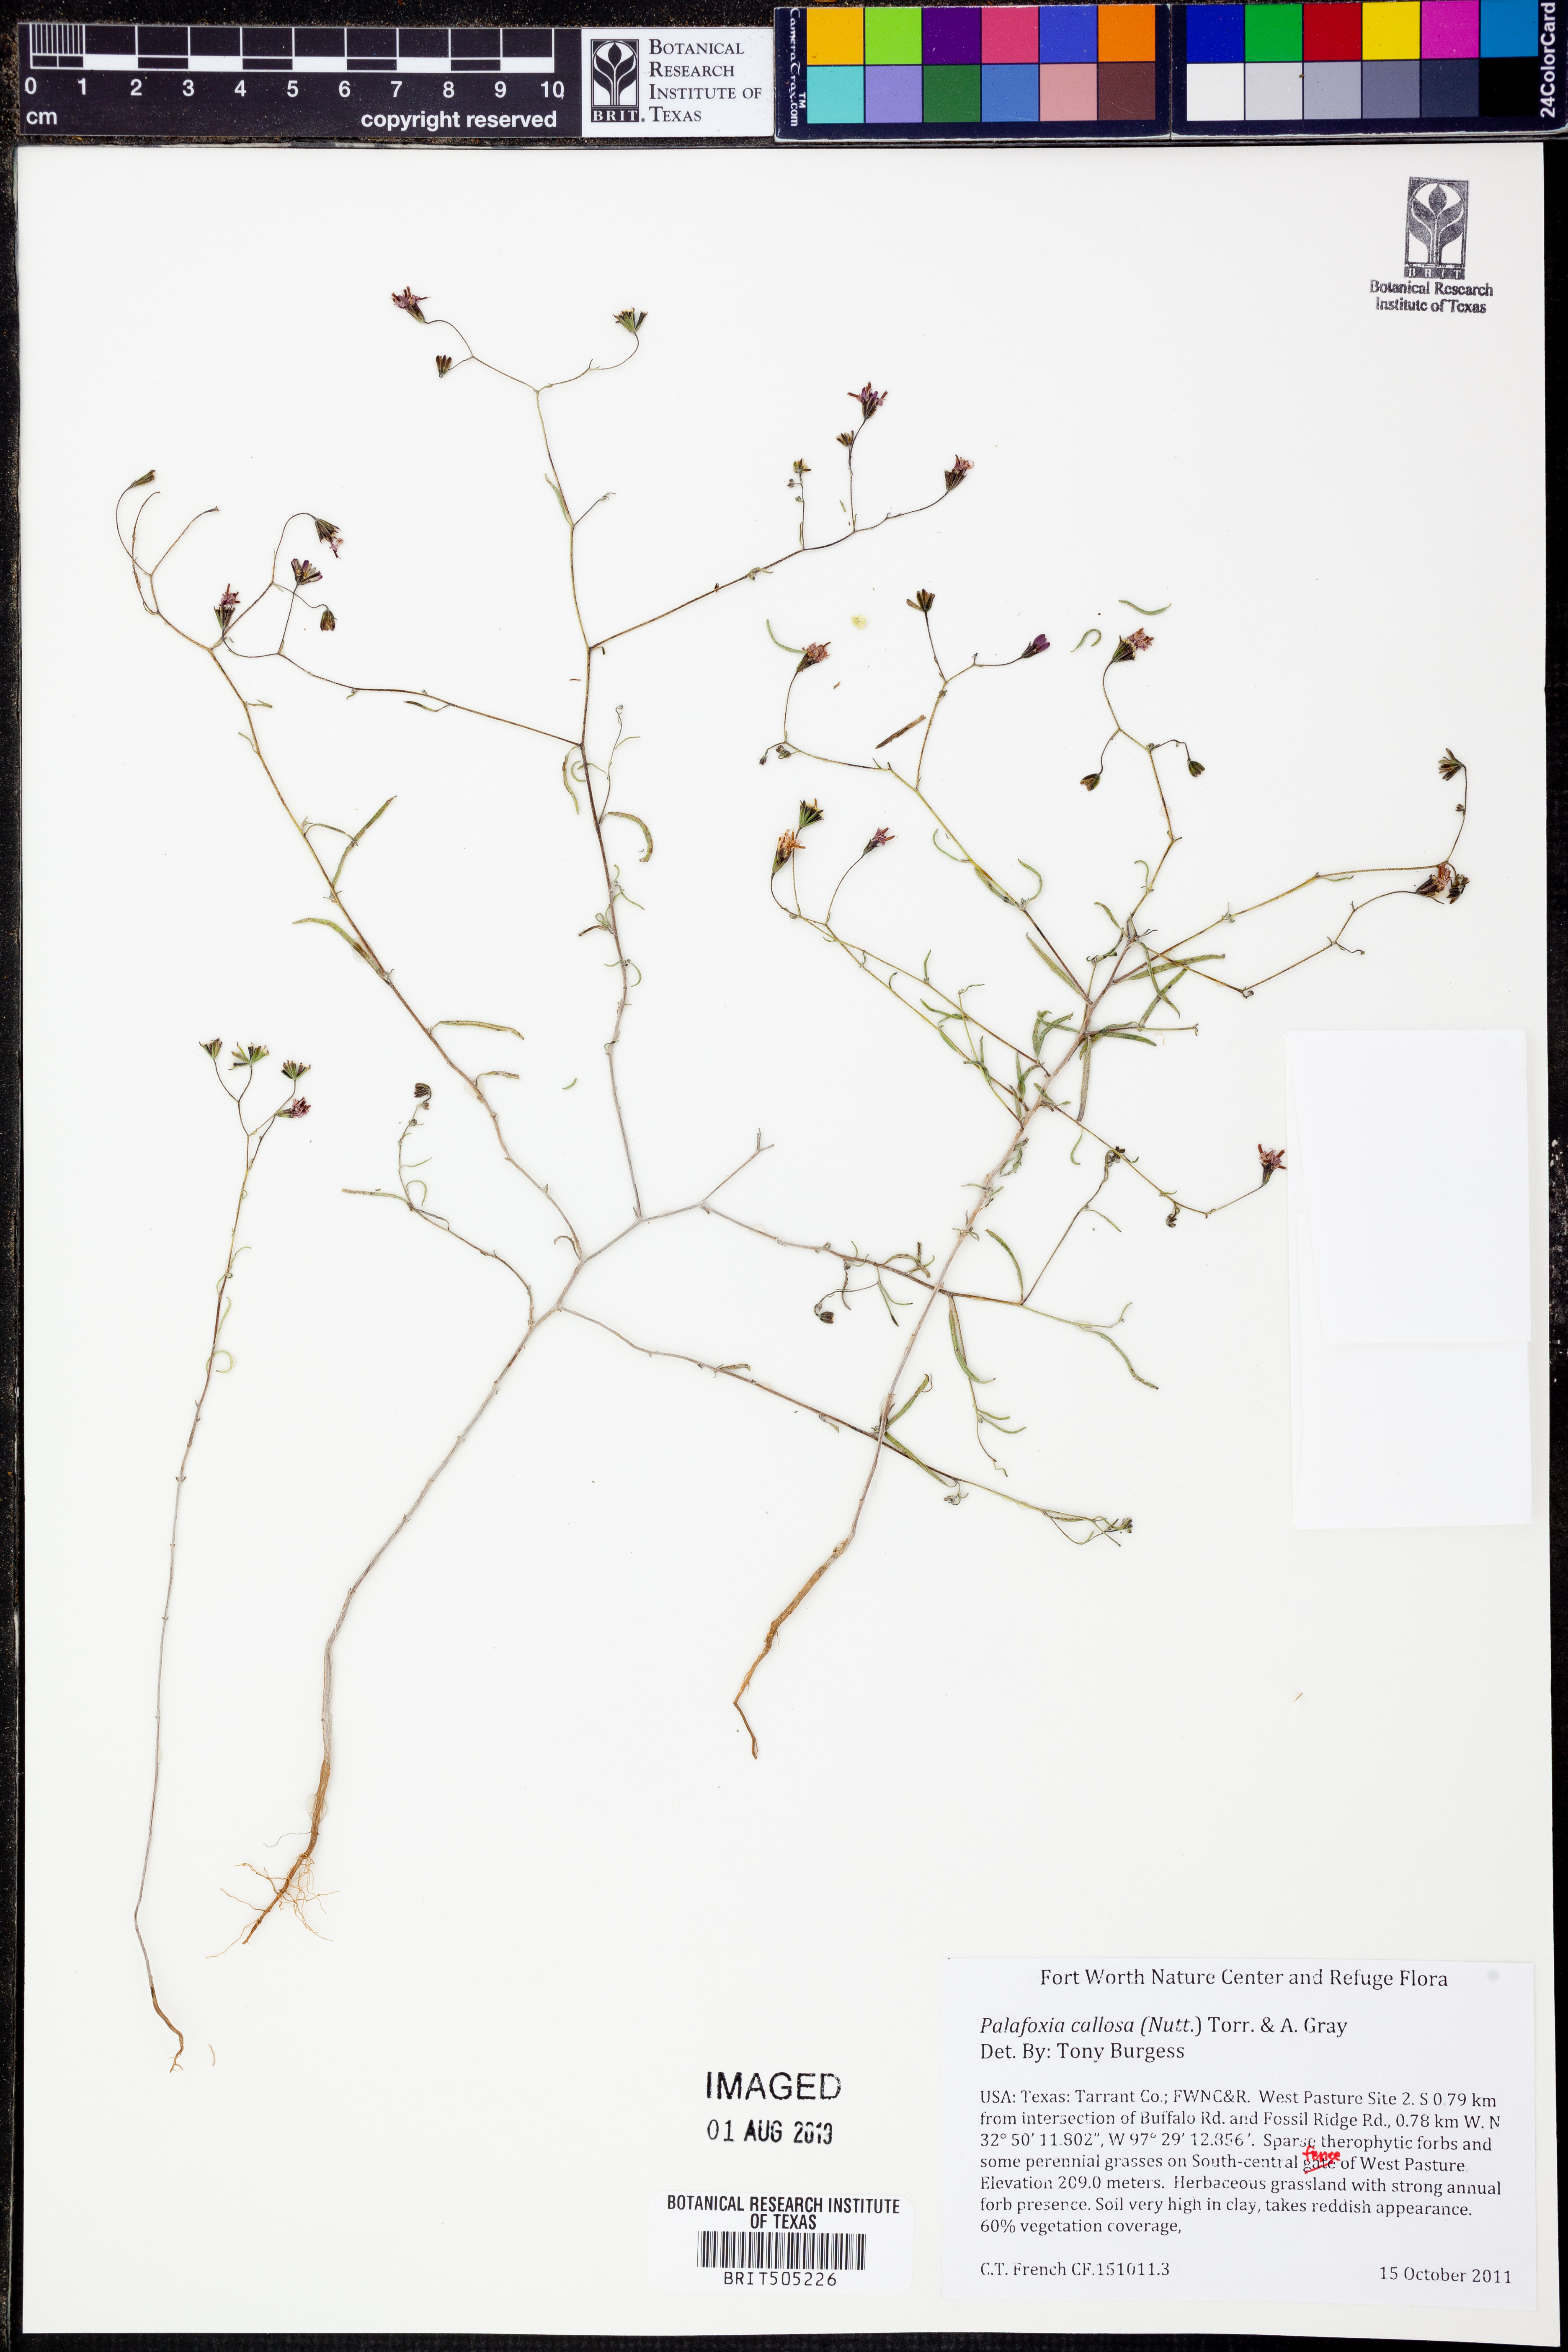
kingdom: Plantae
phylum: Tracheophyta
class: Magnoliopsida
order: Asterales
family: Asteraceae
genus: Palafoxia
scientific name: Palafoxia callosa
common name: Small palafox
